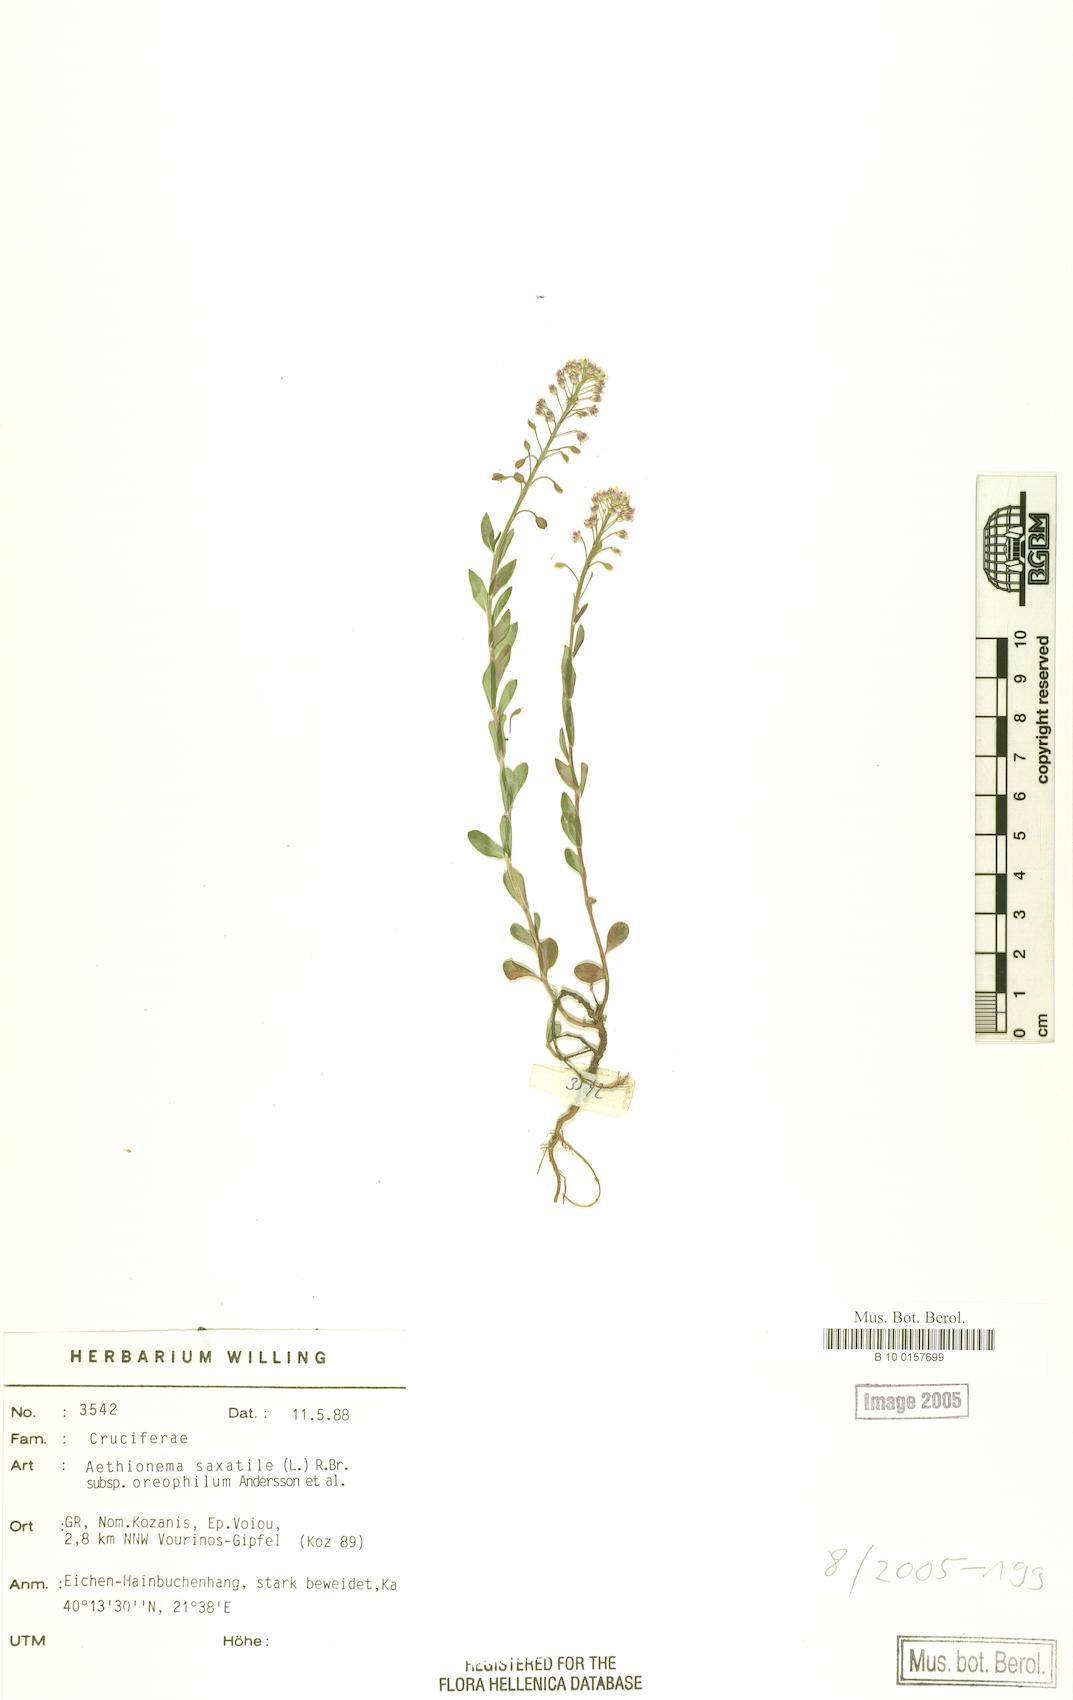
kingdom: Plantae
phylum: Tracheophyta
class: Magnoliopsida
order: Brassicales
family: Brassicaceae
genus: Aethionema
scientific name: Aethionema saxatile
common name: Burnt candytuft
